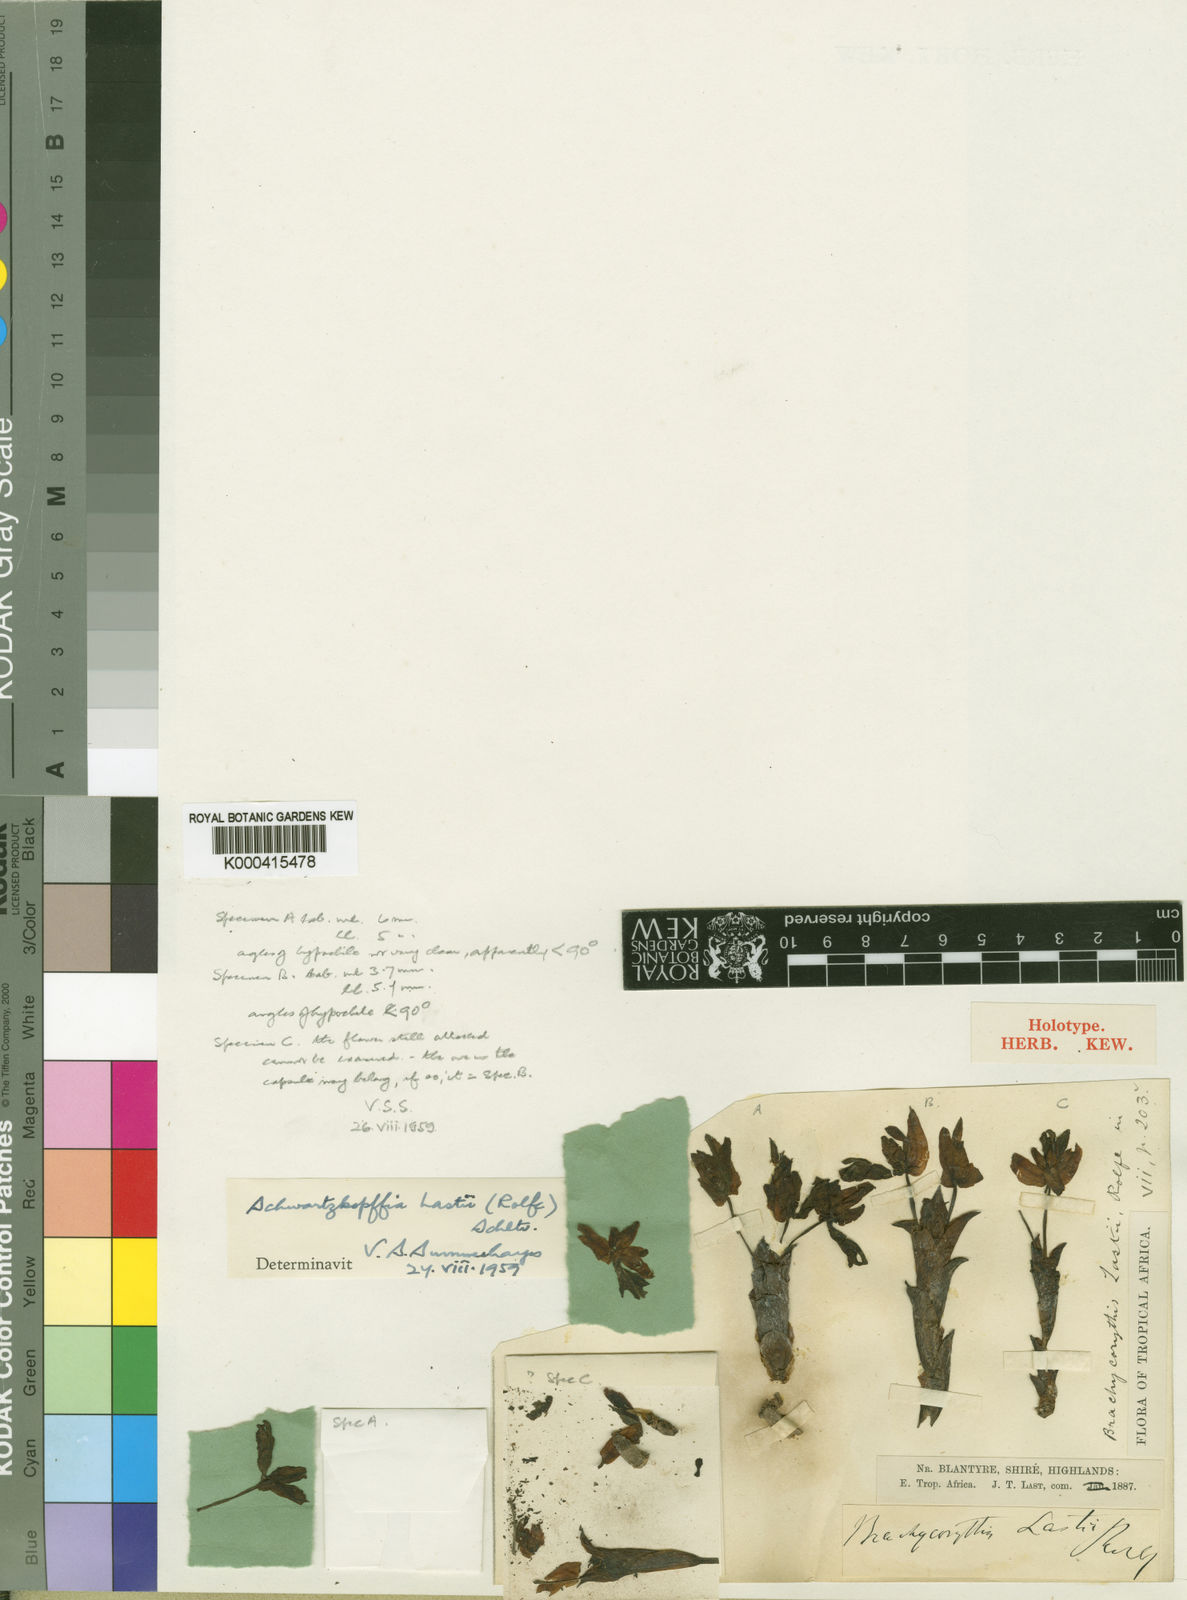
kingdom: Plantae
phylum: Tracheophyta
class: Liliopsida
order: Asparagales
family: Orchidaceae
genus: Brachycorythis
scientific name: Brachycorythis lastii
